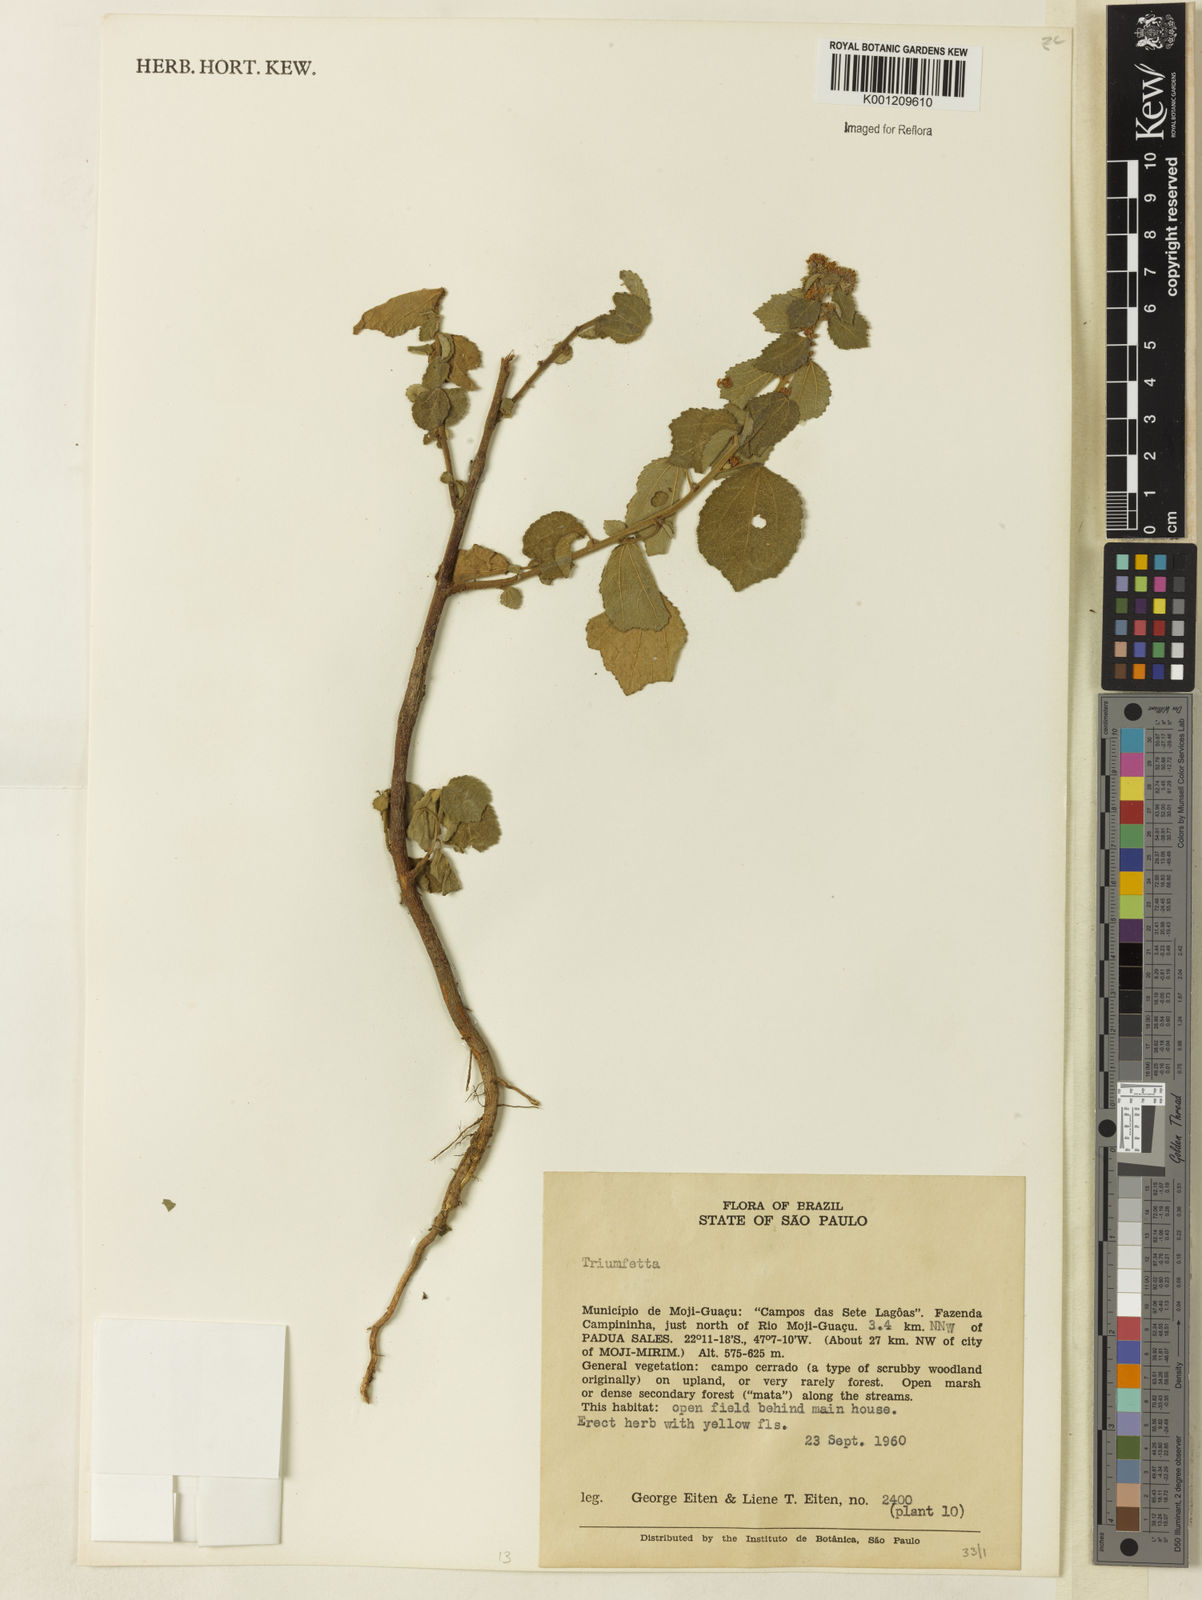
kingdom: Plantae
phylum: Tracheophyta
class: Magnoliopsida
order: Malvales
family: Malvaceae
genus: Triumfetta
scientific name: Triumfetta
